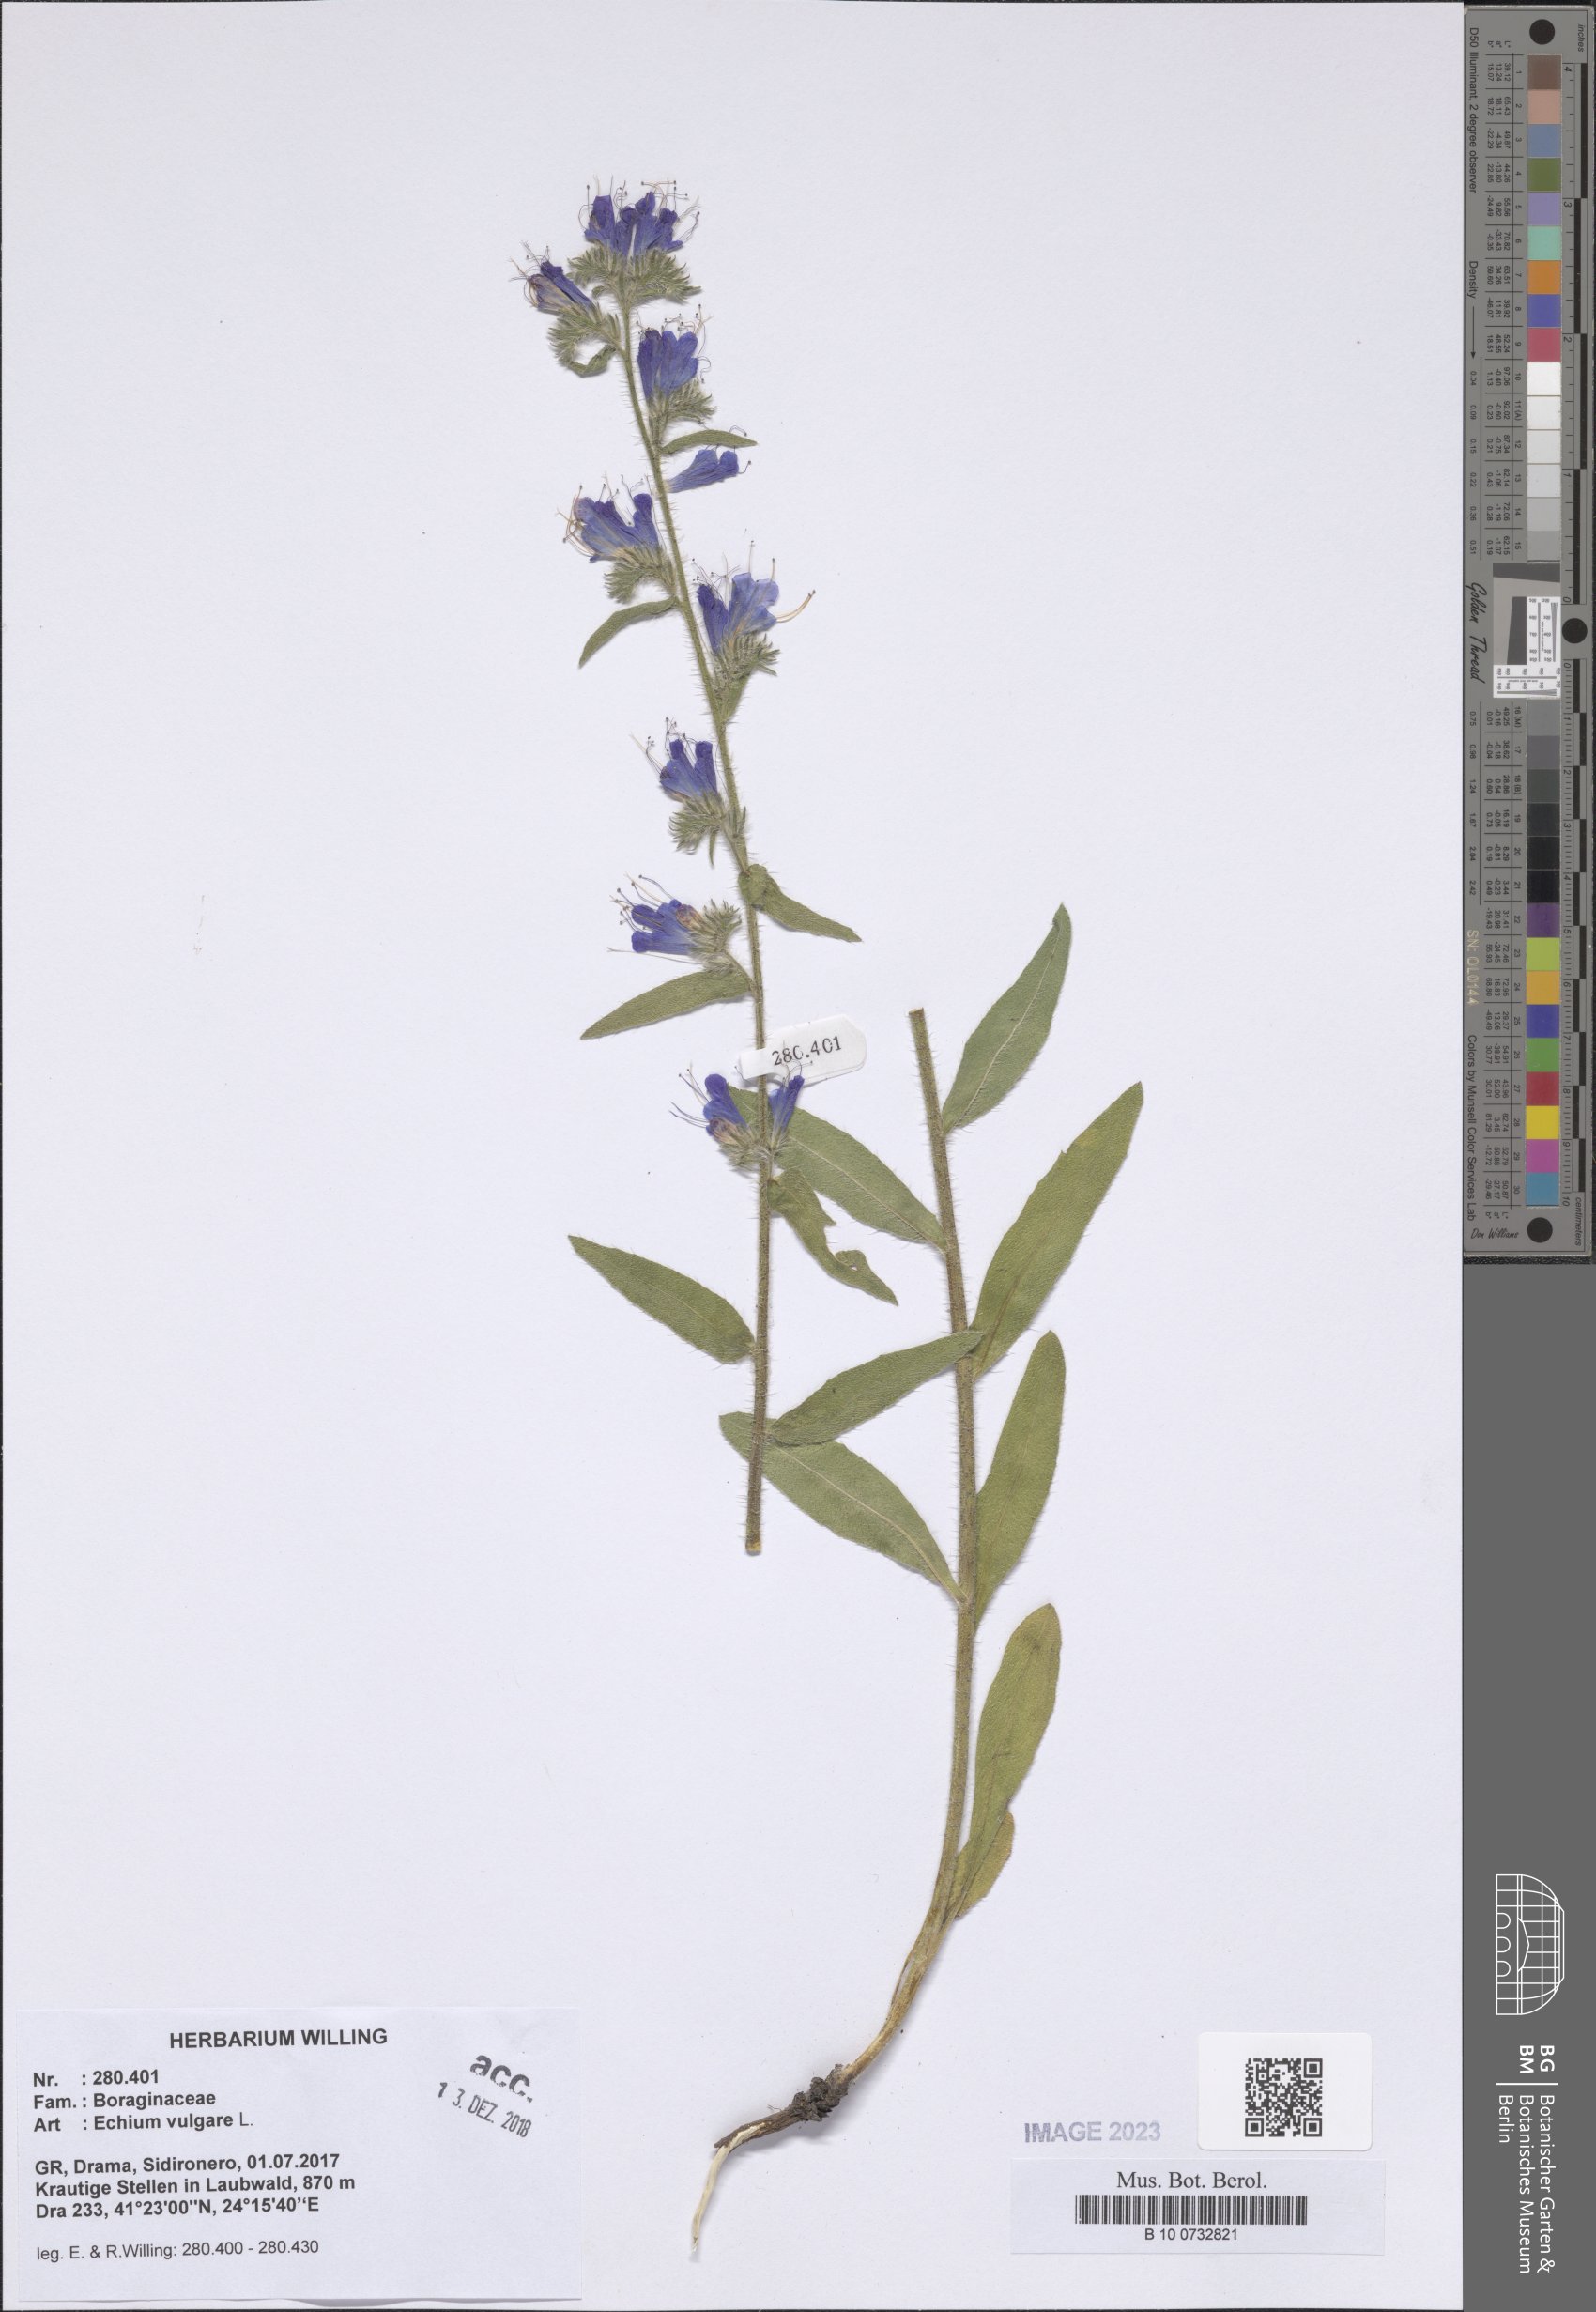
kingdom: Plantae
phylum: Tracheophyta
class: Magnoliopsida
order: Boraginales
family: Boraginaceae
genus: Echium
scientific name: Echium vulgare
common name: Common viper's bugloss
